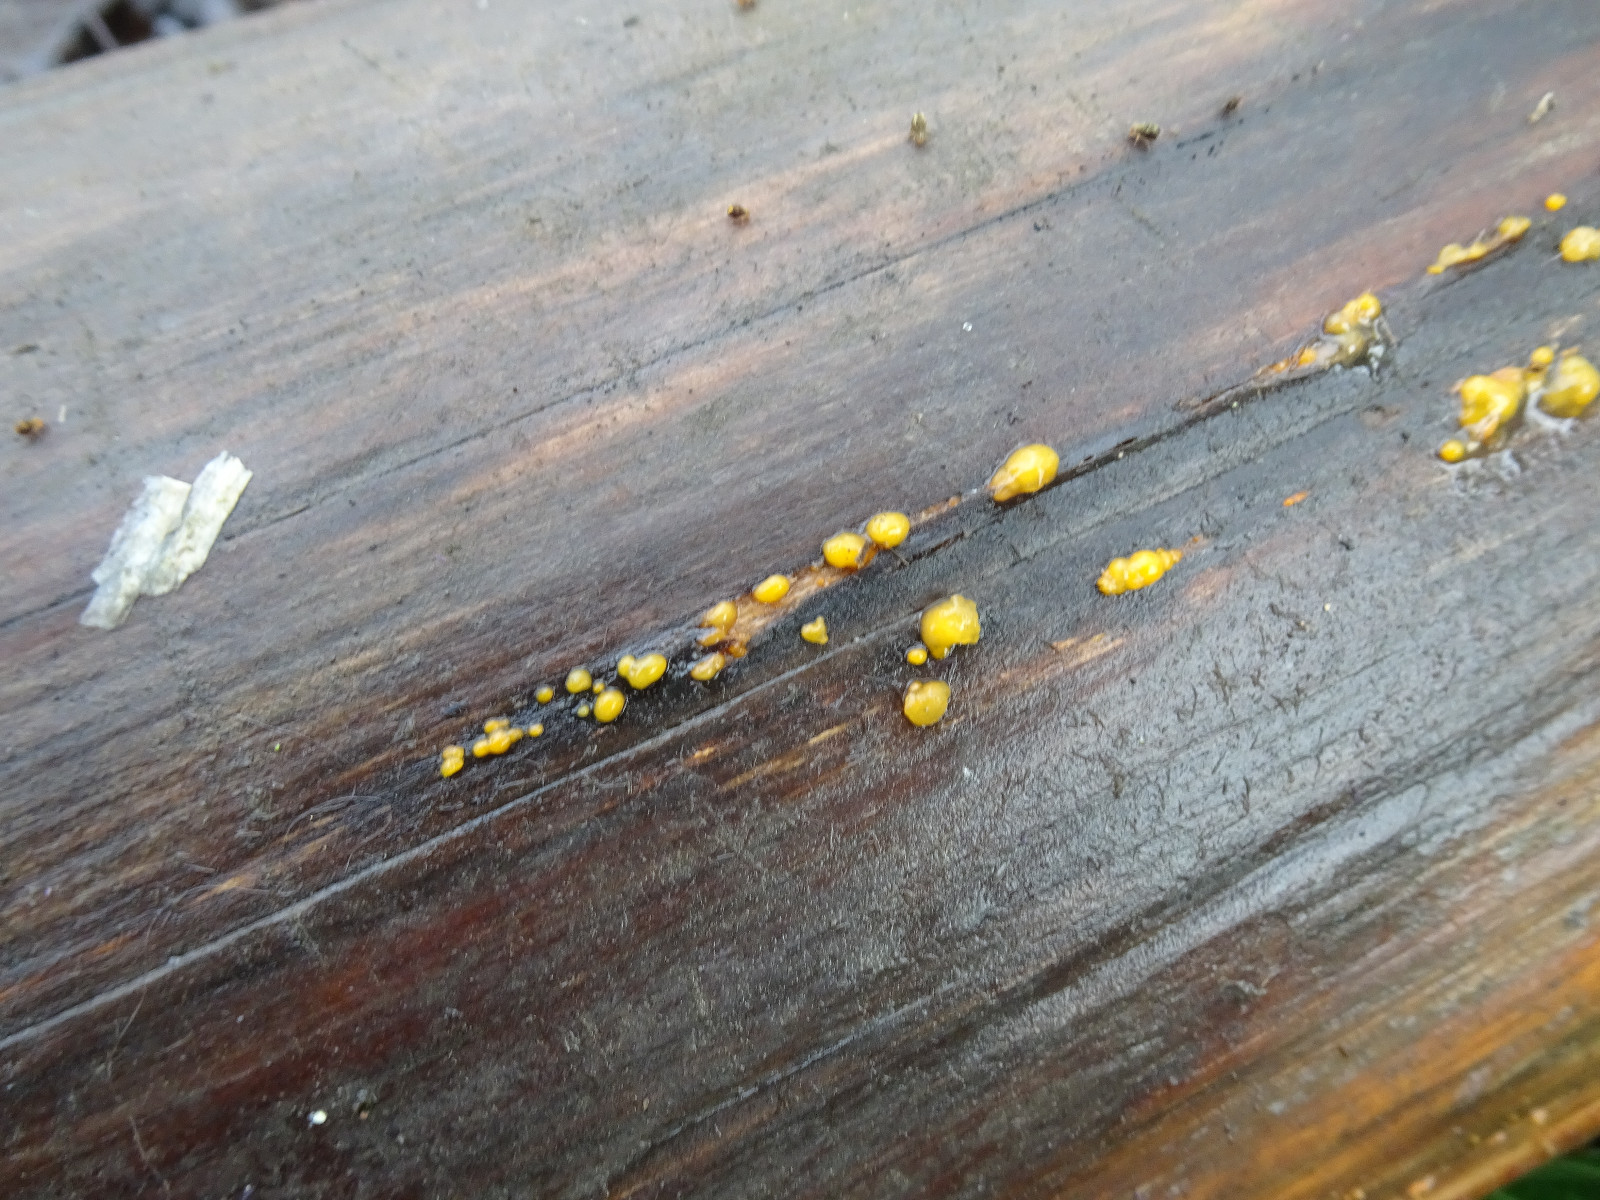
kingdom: Fungi
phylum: Basidiomycota
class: Dacrymycetes
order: Dacrymycetales
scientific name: Dacrymycetales
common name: tåresvampordenen
